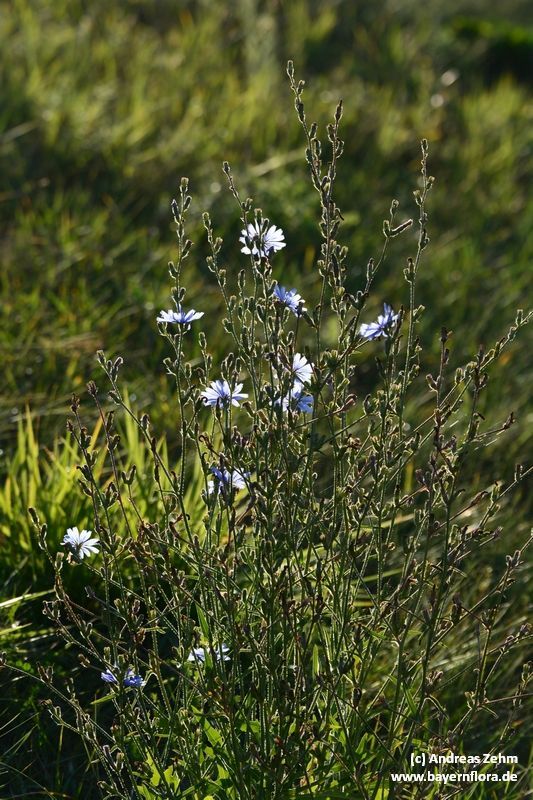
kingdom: Plantae
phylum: Tracheophyta
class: Magnoliopsida
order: Asterales
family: Asteraceae
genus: Cichorium
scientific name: Cichorium intybus
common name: Chicory
